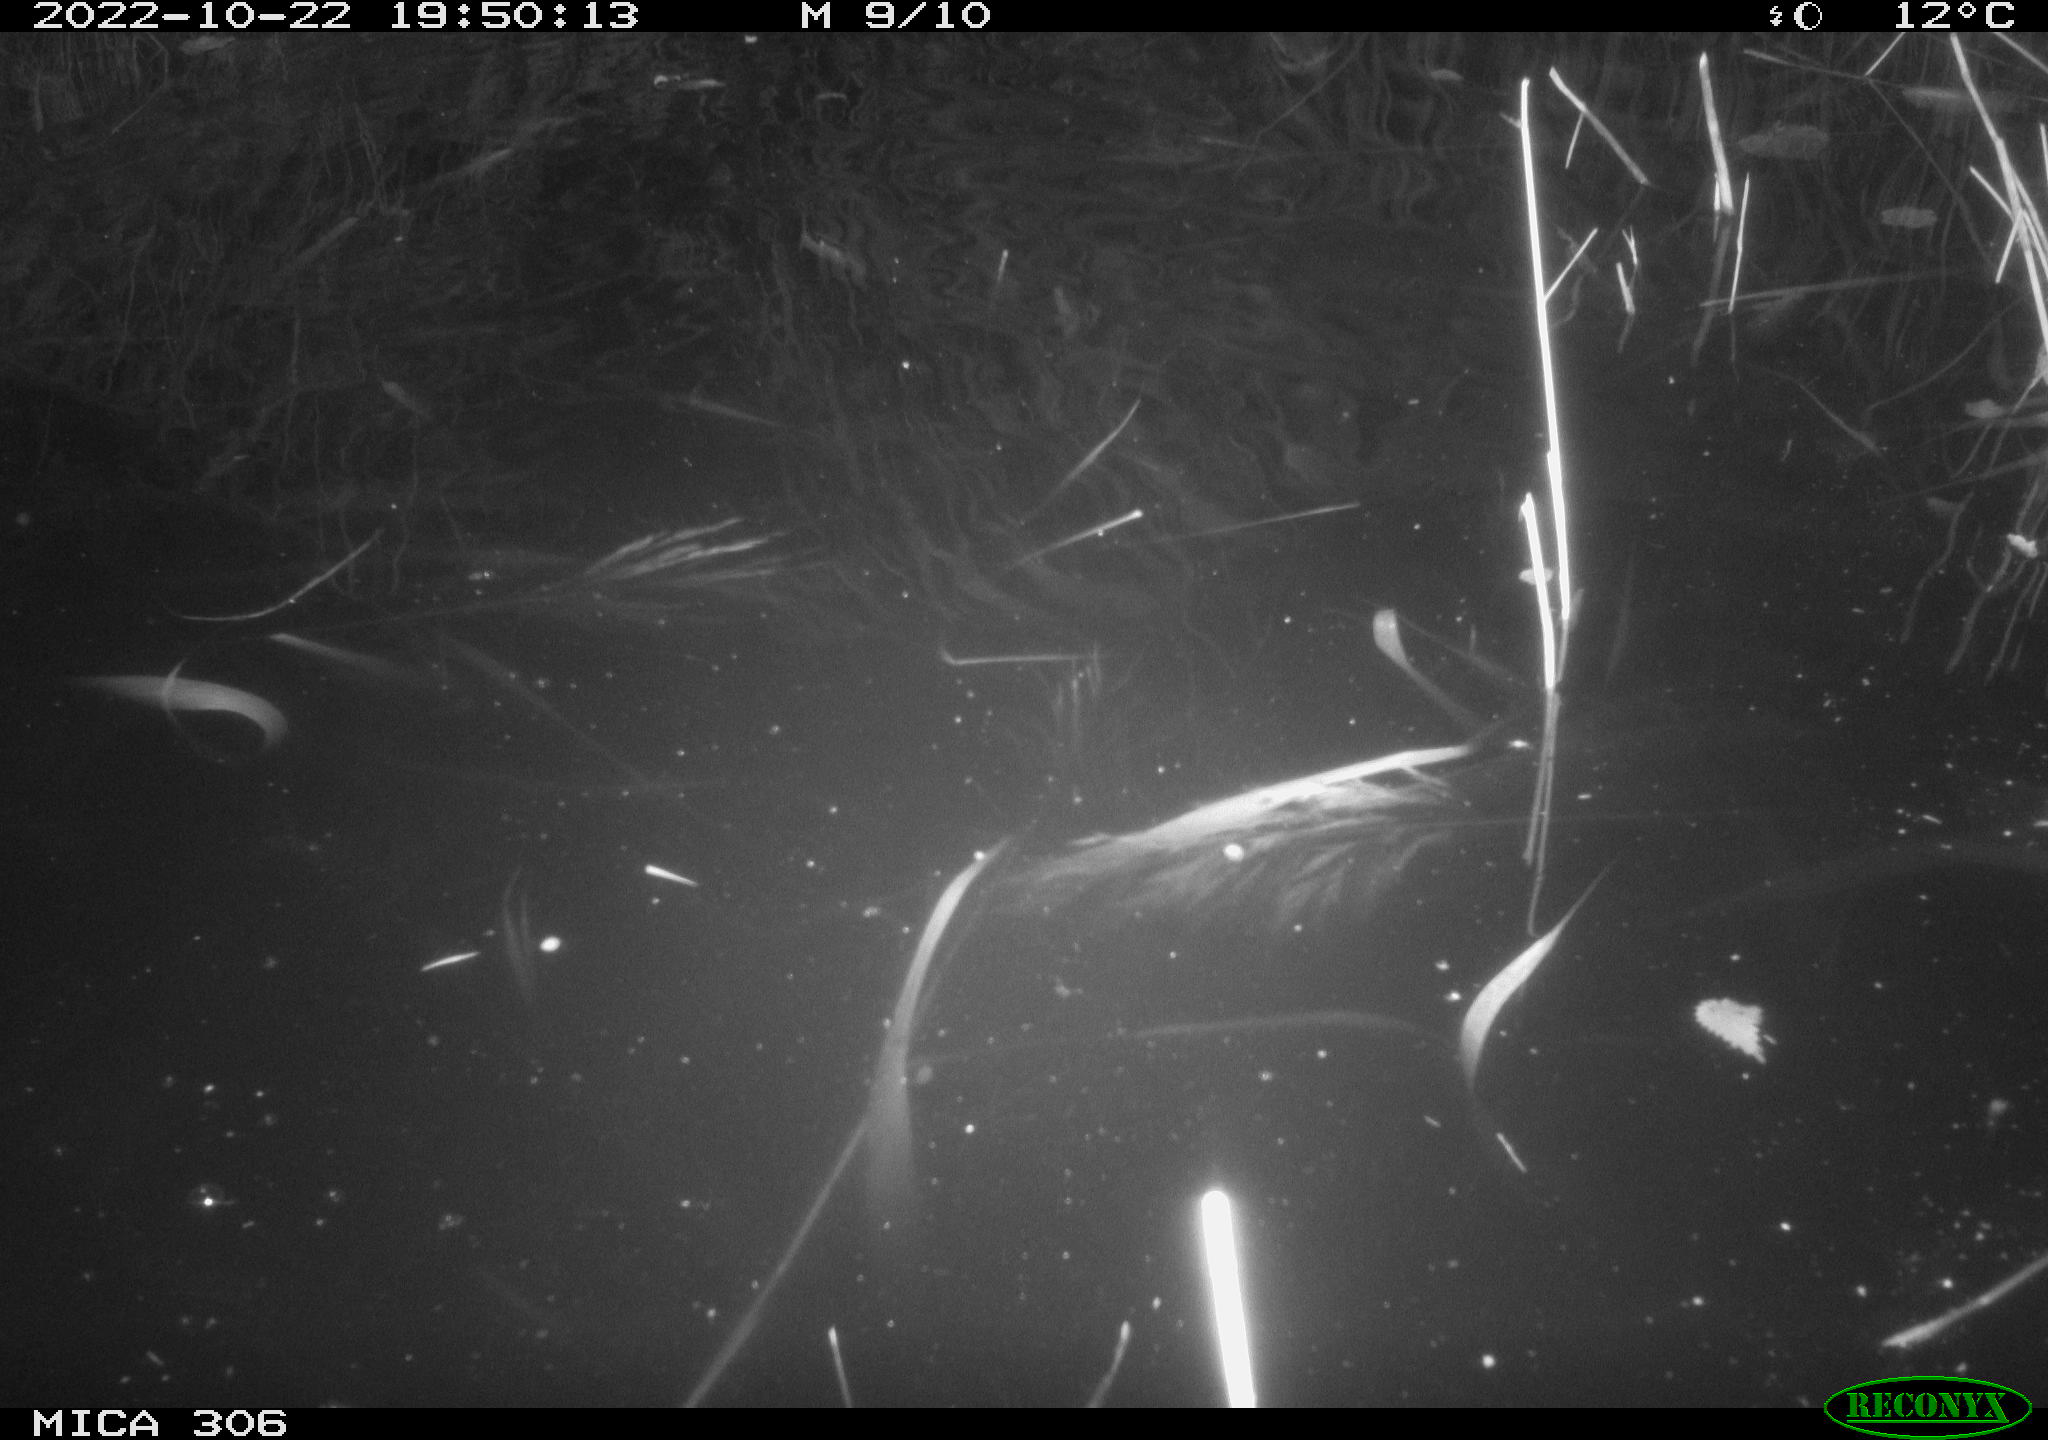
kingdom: Animalia
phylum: Chordata
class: Mammalia
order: Rodentia
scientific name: Rodentia
